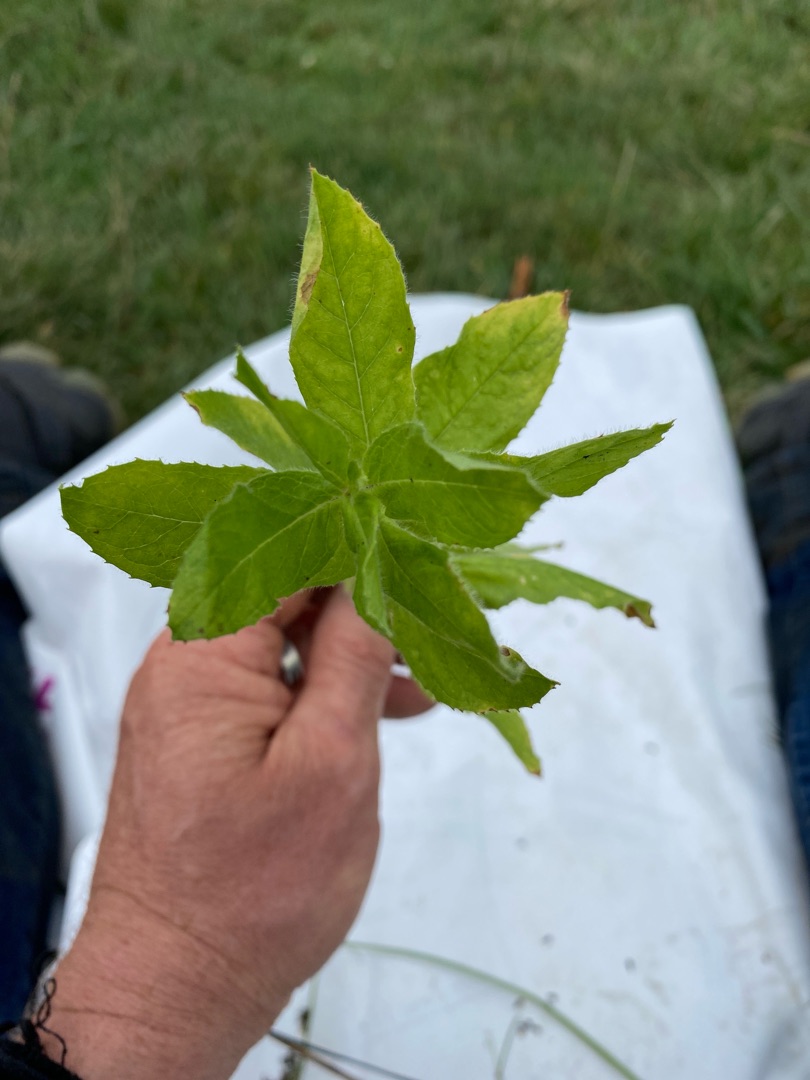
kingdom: Plantae
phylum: Tracheophyta
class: Magnoliopsida
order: Myrtales
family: Onagraceae
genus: Epilobium
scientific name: Epilobium hirsutum
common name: Lådden dueurt
